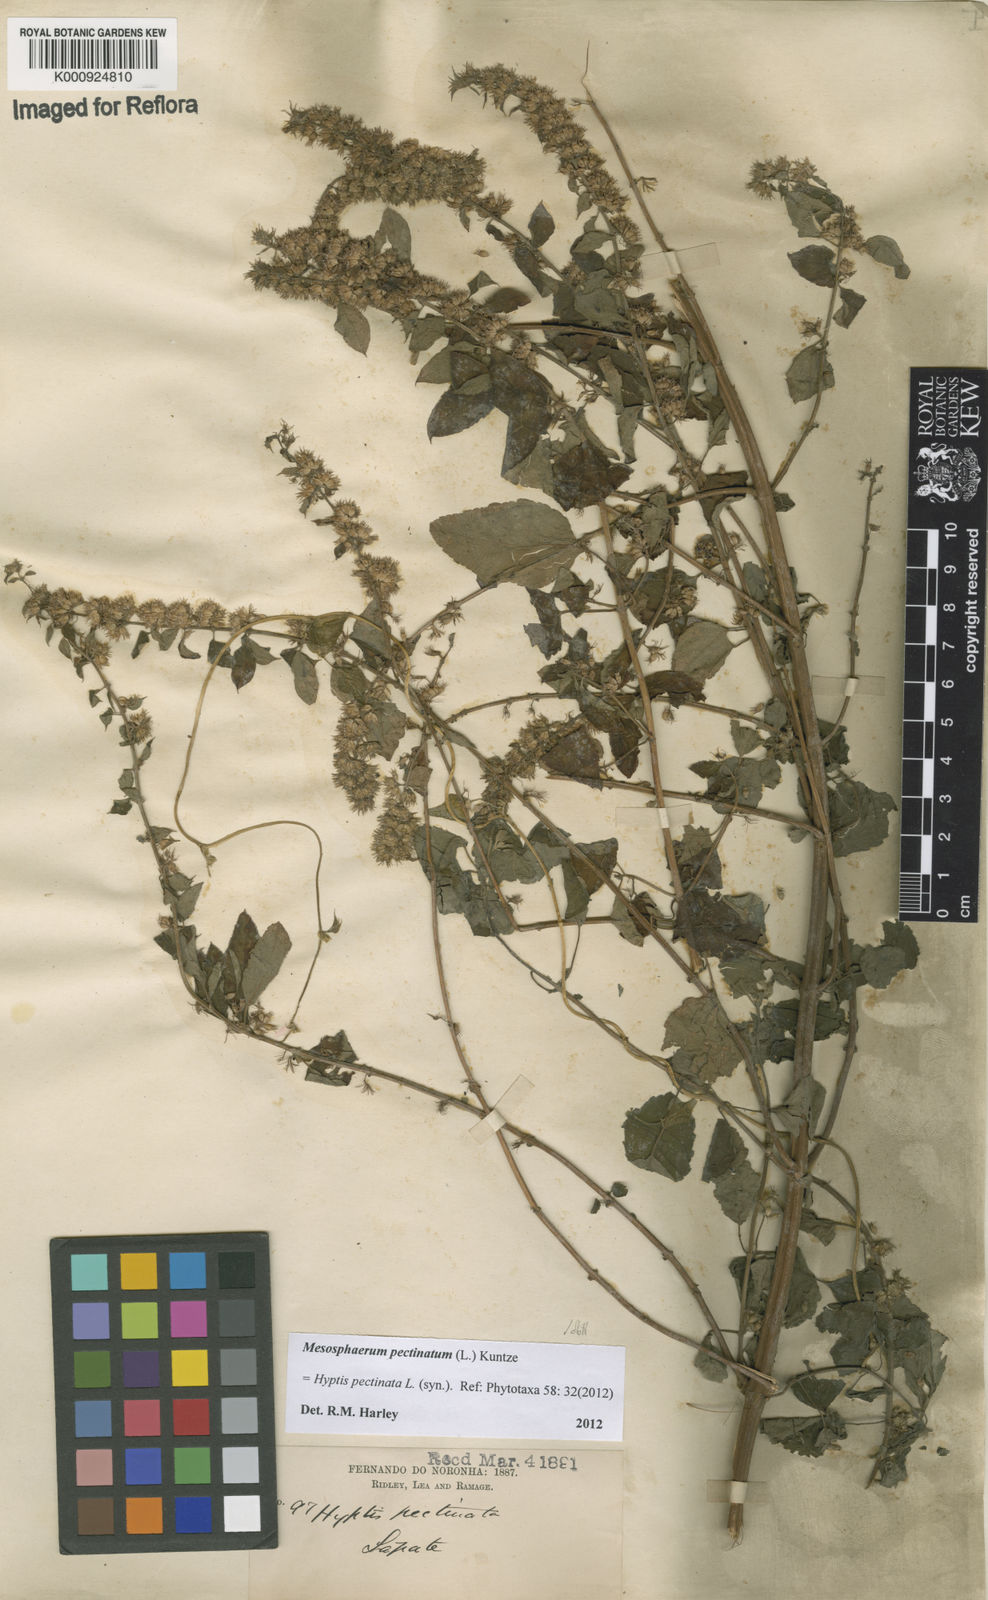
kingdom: Plantae
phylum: Tracheophyta
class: Magnoliopsida
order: Lamiales
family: Lamiaceae
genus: Mesosphaerum
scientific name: Mesosphaerum pectinatum
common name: Comb hyptis
